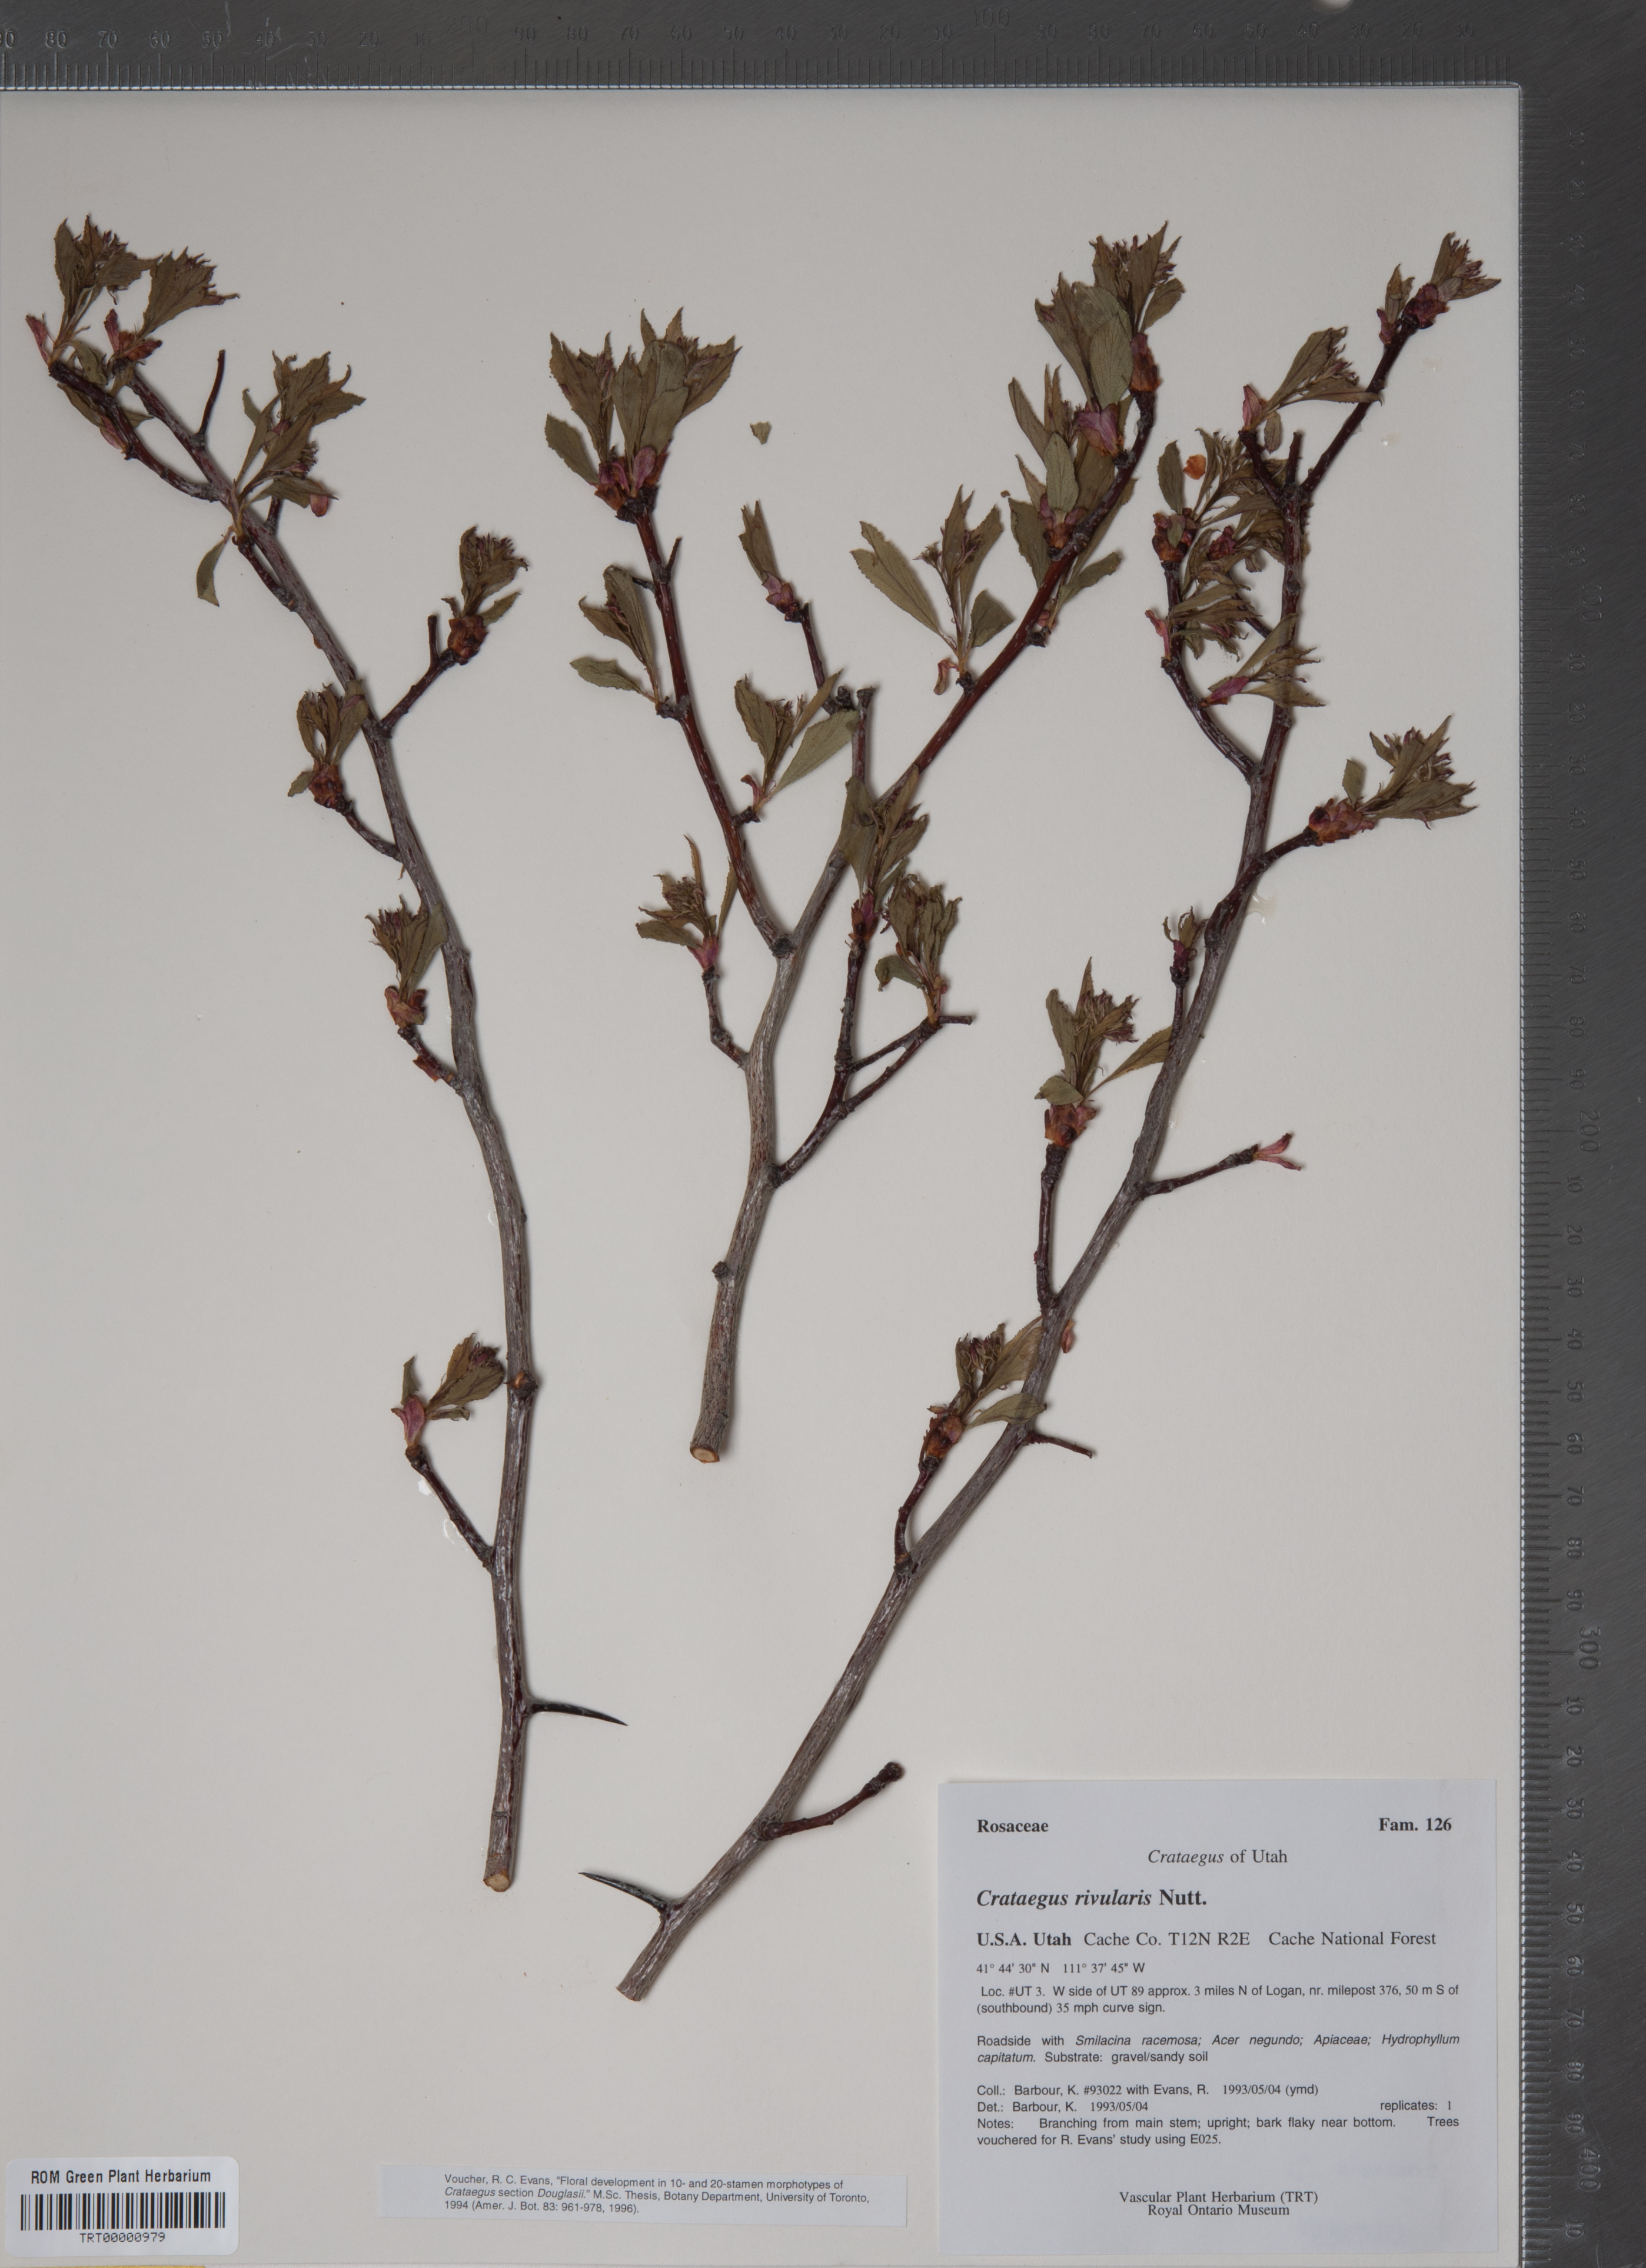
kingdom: Plantae
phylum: Tracheophyta
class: Magnoliopsida
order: Rosales
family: Rosaceae
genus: Crataegus
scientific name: Crataegus rivularis
